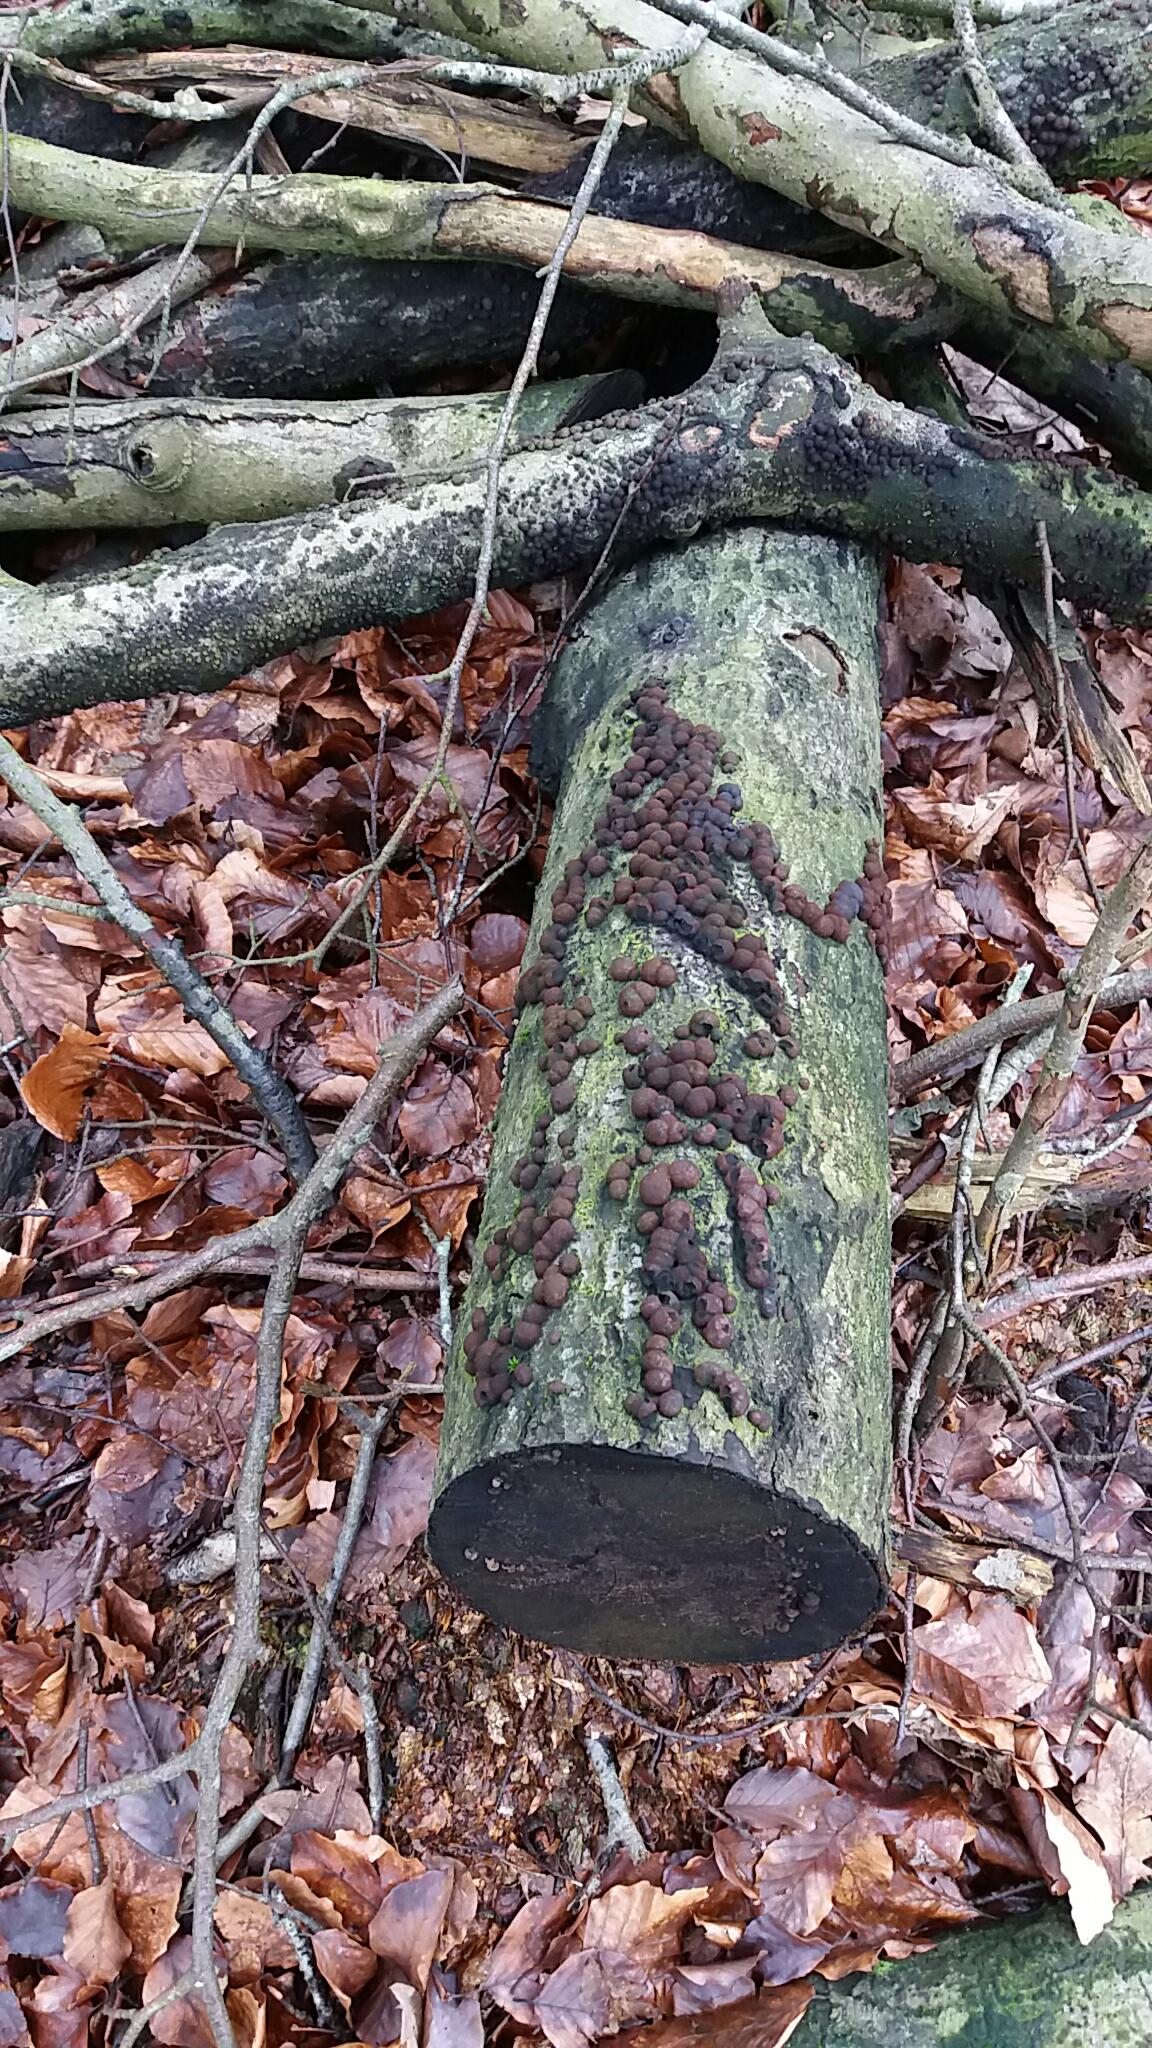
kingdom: Fungi
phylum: Ascomycota
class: Sordariomycetes
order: Xylariales
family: Hypoxylaceae
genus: Hypoxylon
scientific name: Hypoxylon fragiforme
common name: kuljordbær
